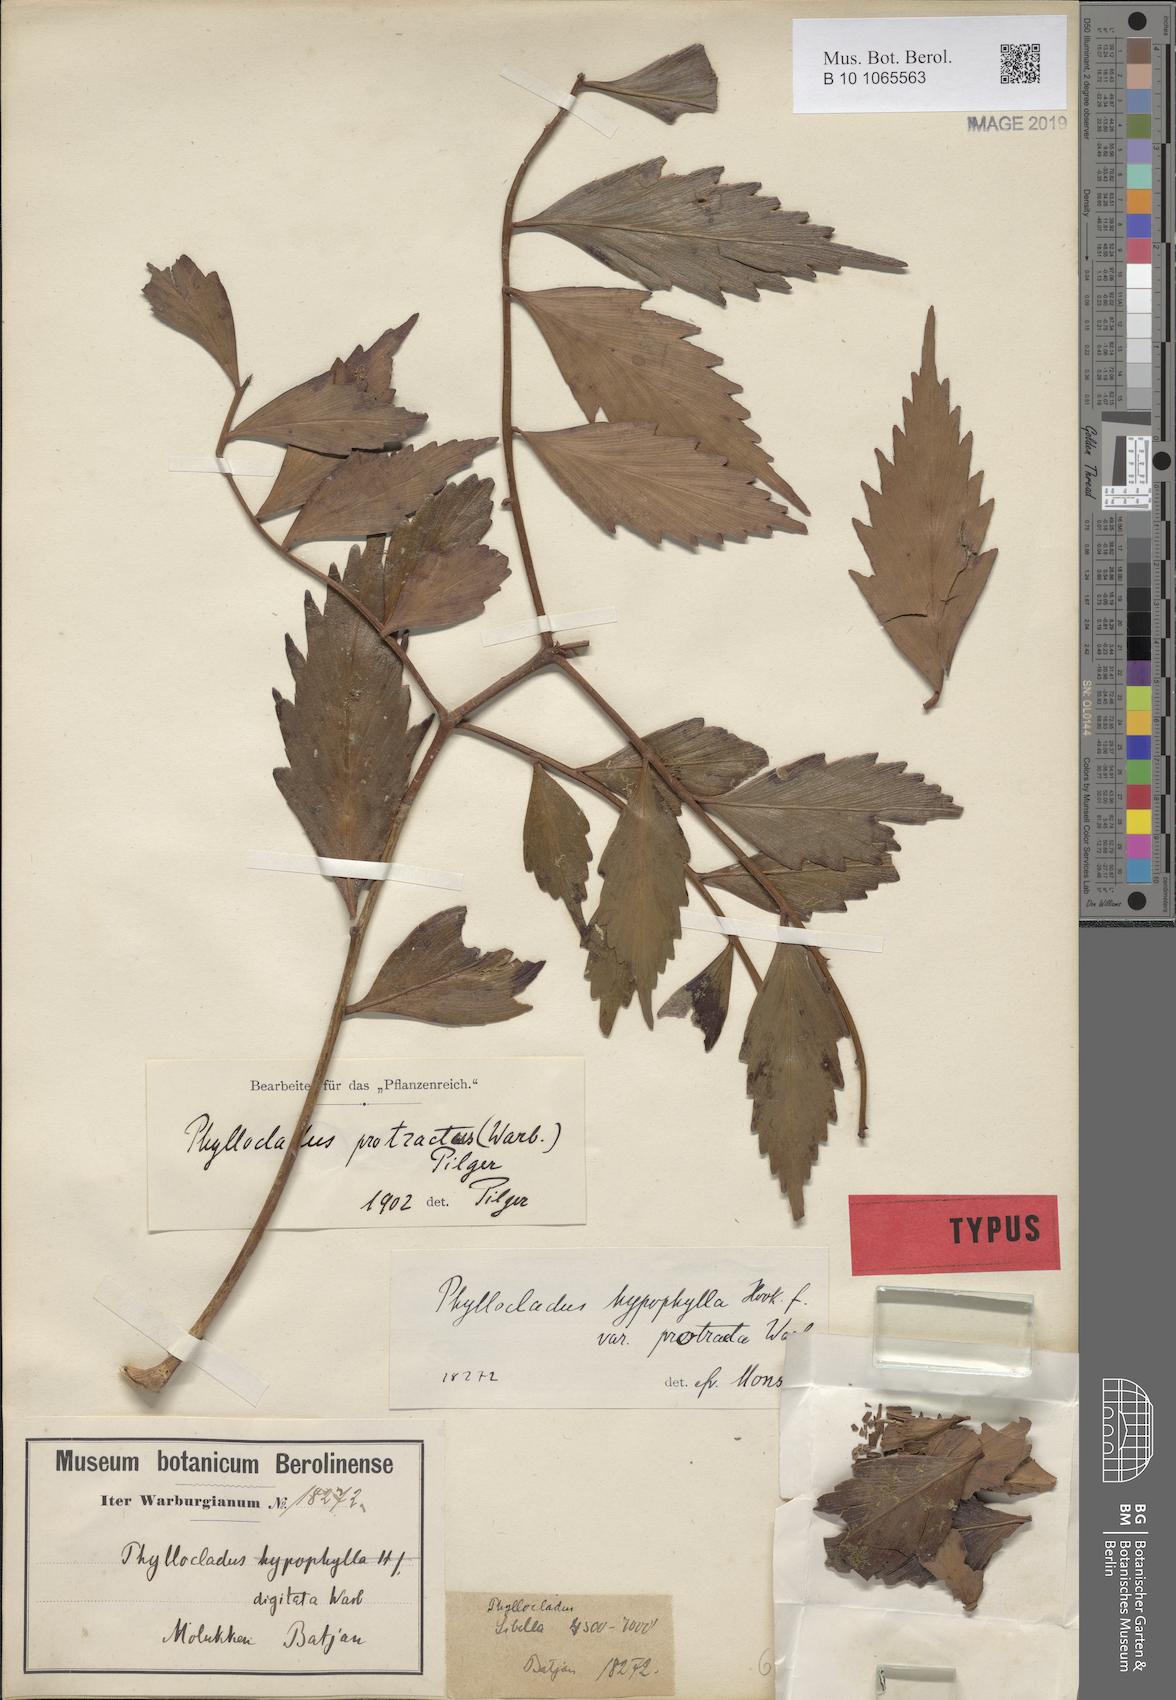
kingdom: Plantae
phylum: Tracheophyta
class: Pinopsida
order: Pinales
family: Phyllocladaceae
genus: Phyllocladus
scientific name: Phyllocladus hypophyllus
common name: Celery pine
